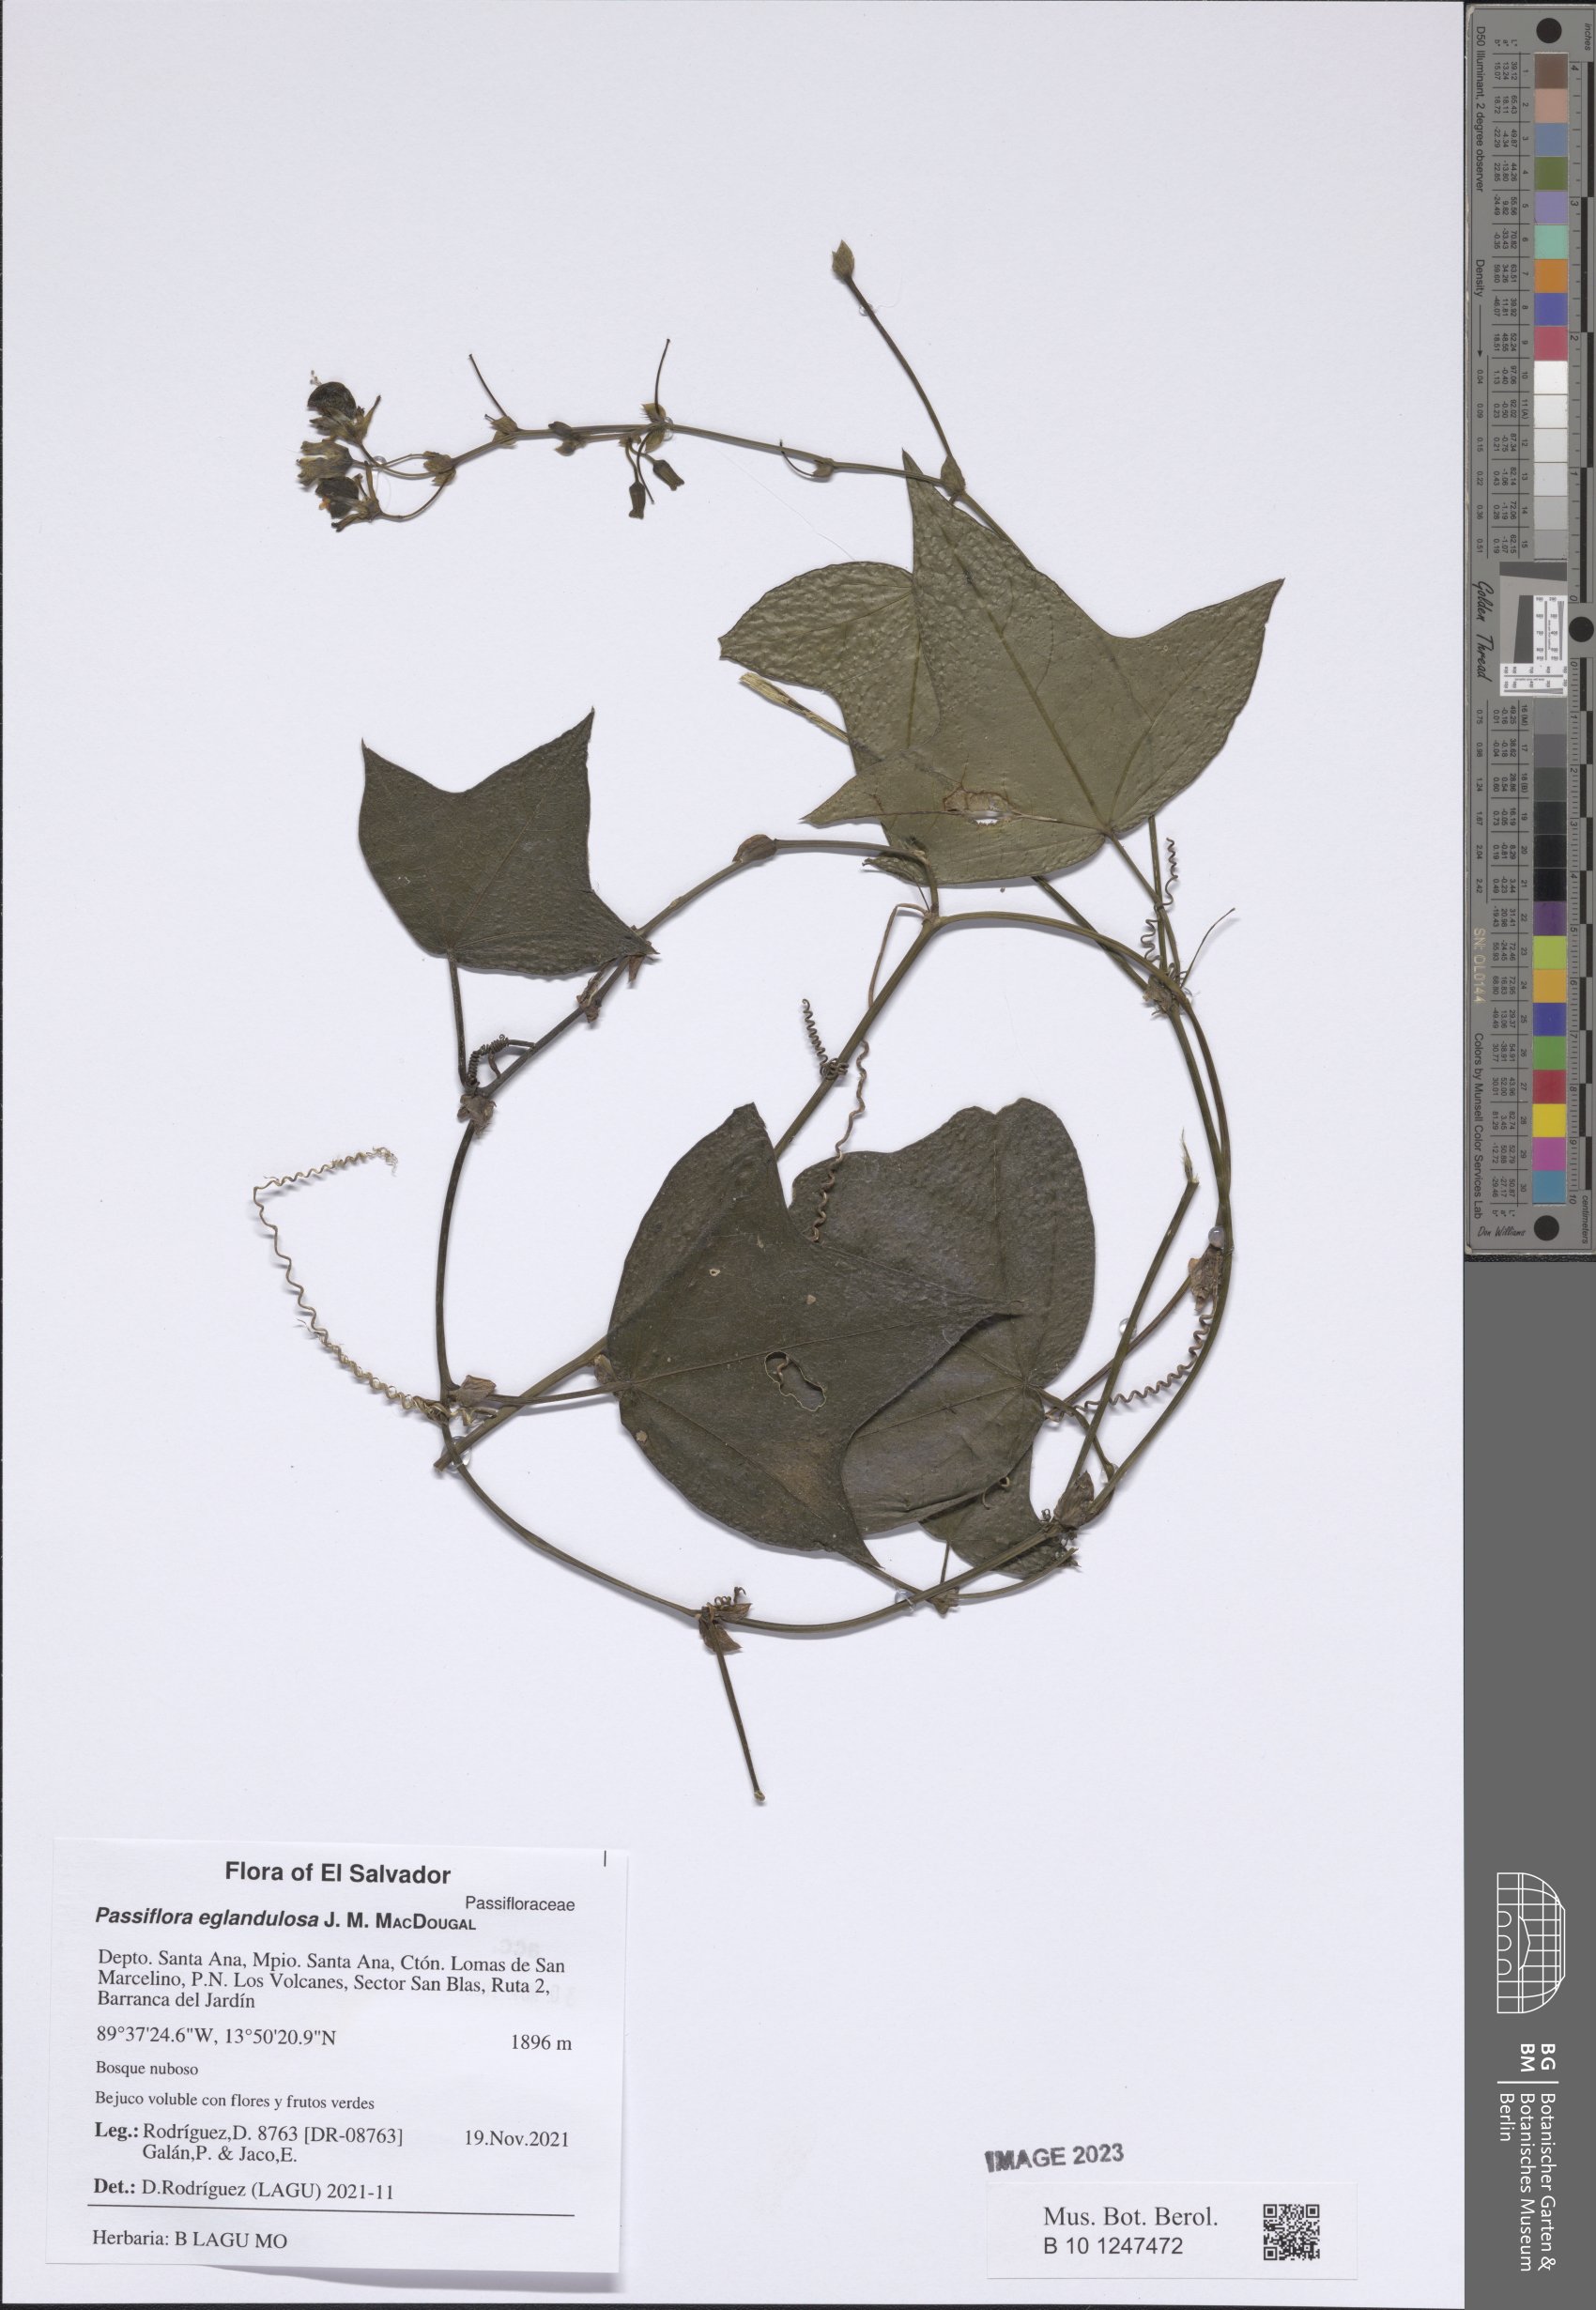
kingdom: Plantae
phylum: Tracheophyta
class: Magnoliopsida
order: Malpighiales
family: Passifloraceae
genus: Passiflora
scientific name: Passiflora eglandulosa
